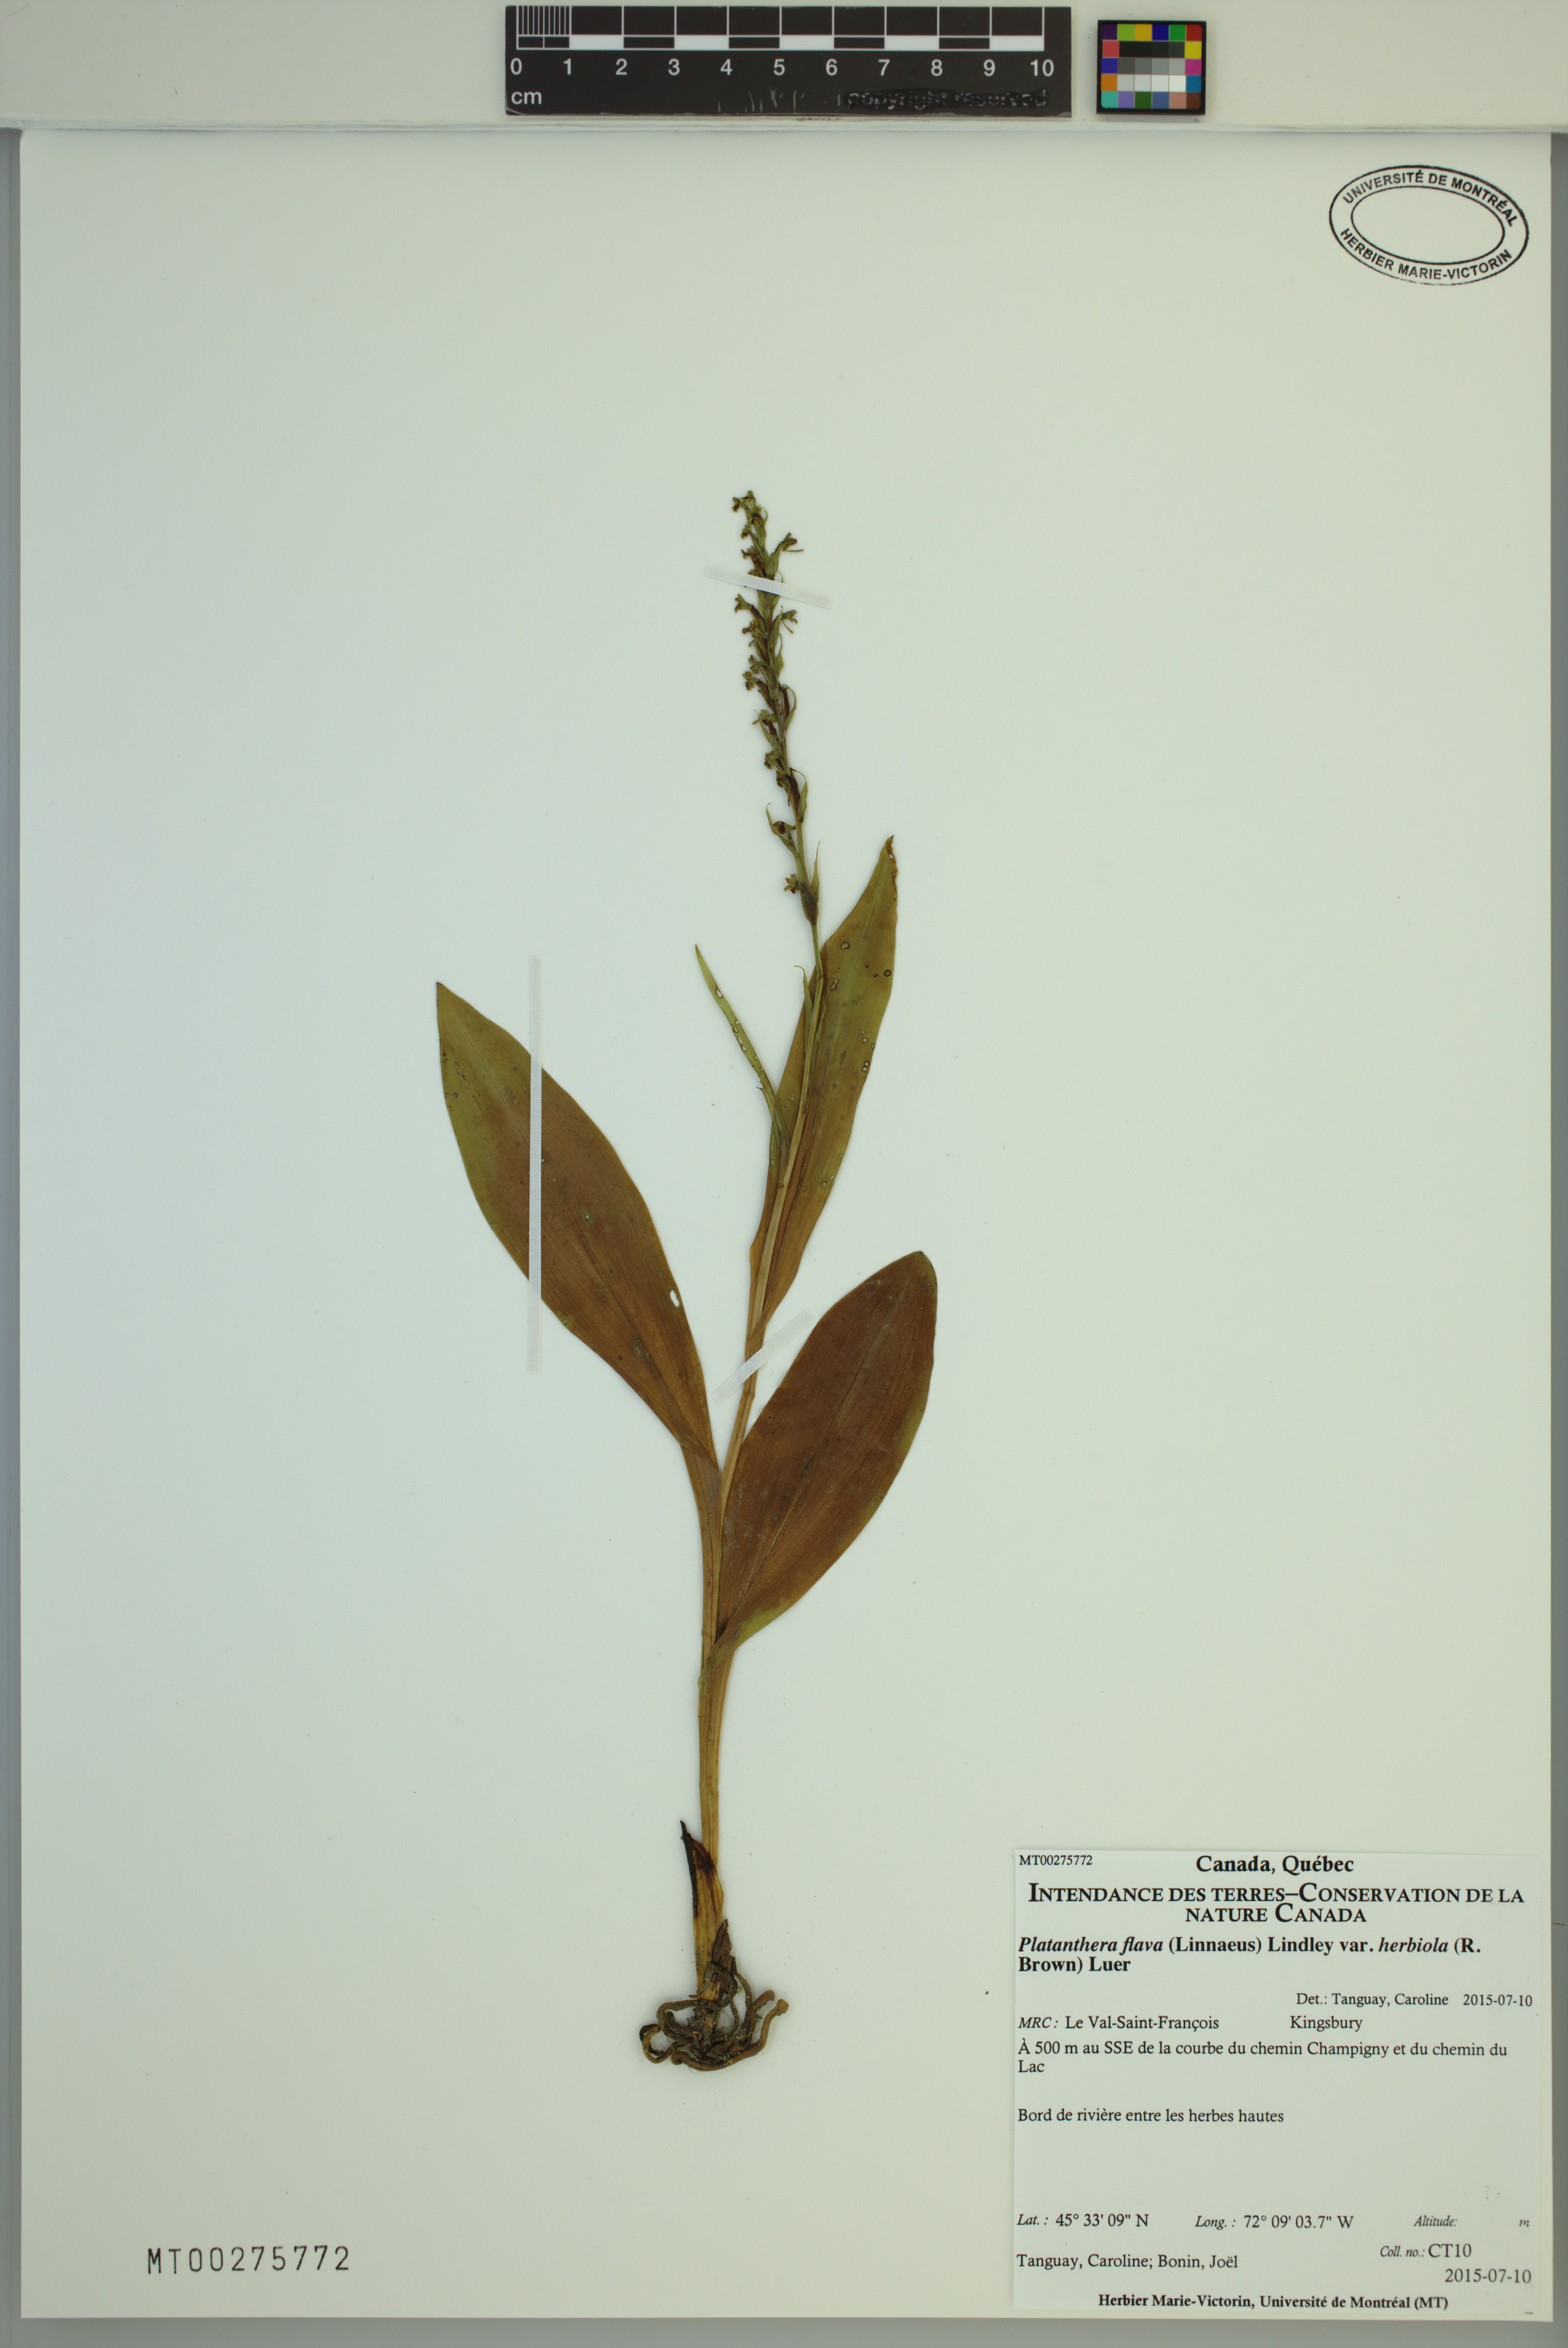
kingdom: Plantae
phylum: Tracheophyta
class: Liliopsida
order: Asparagales
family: Orchidaceae
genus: Platanthera
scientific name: Platanthera flava
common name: Gypsy-spikes
